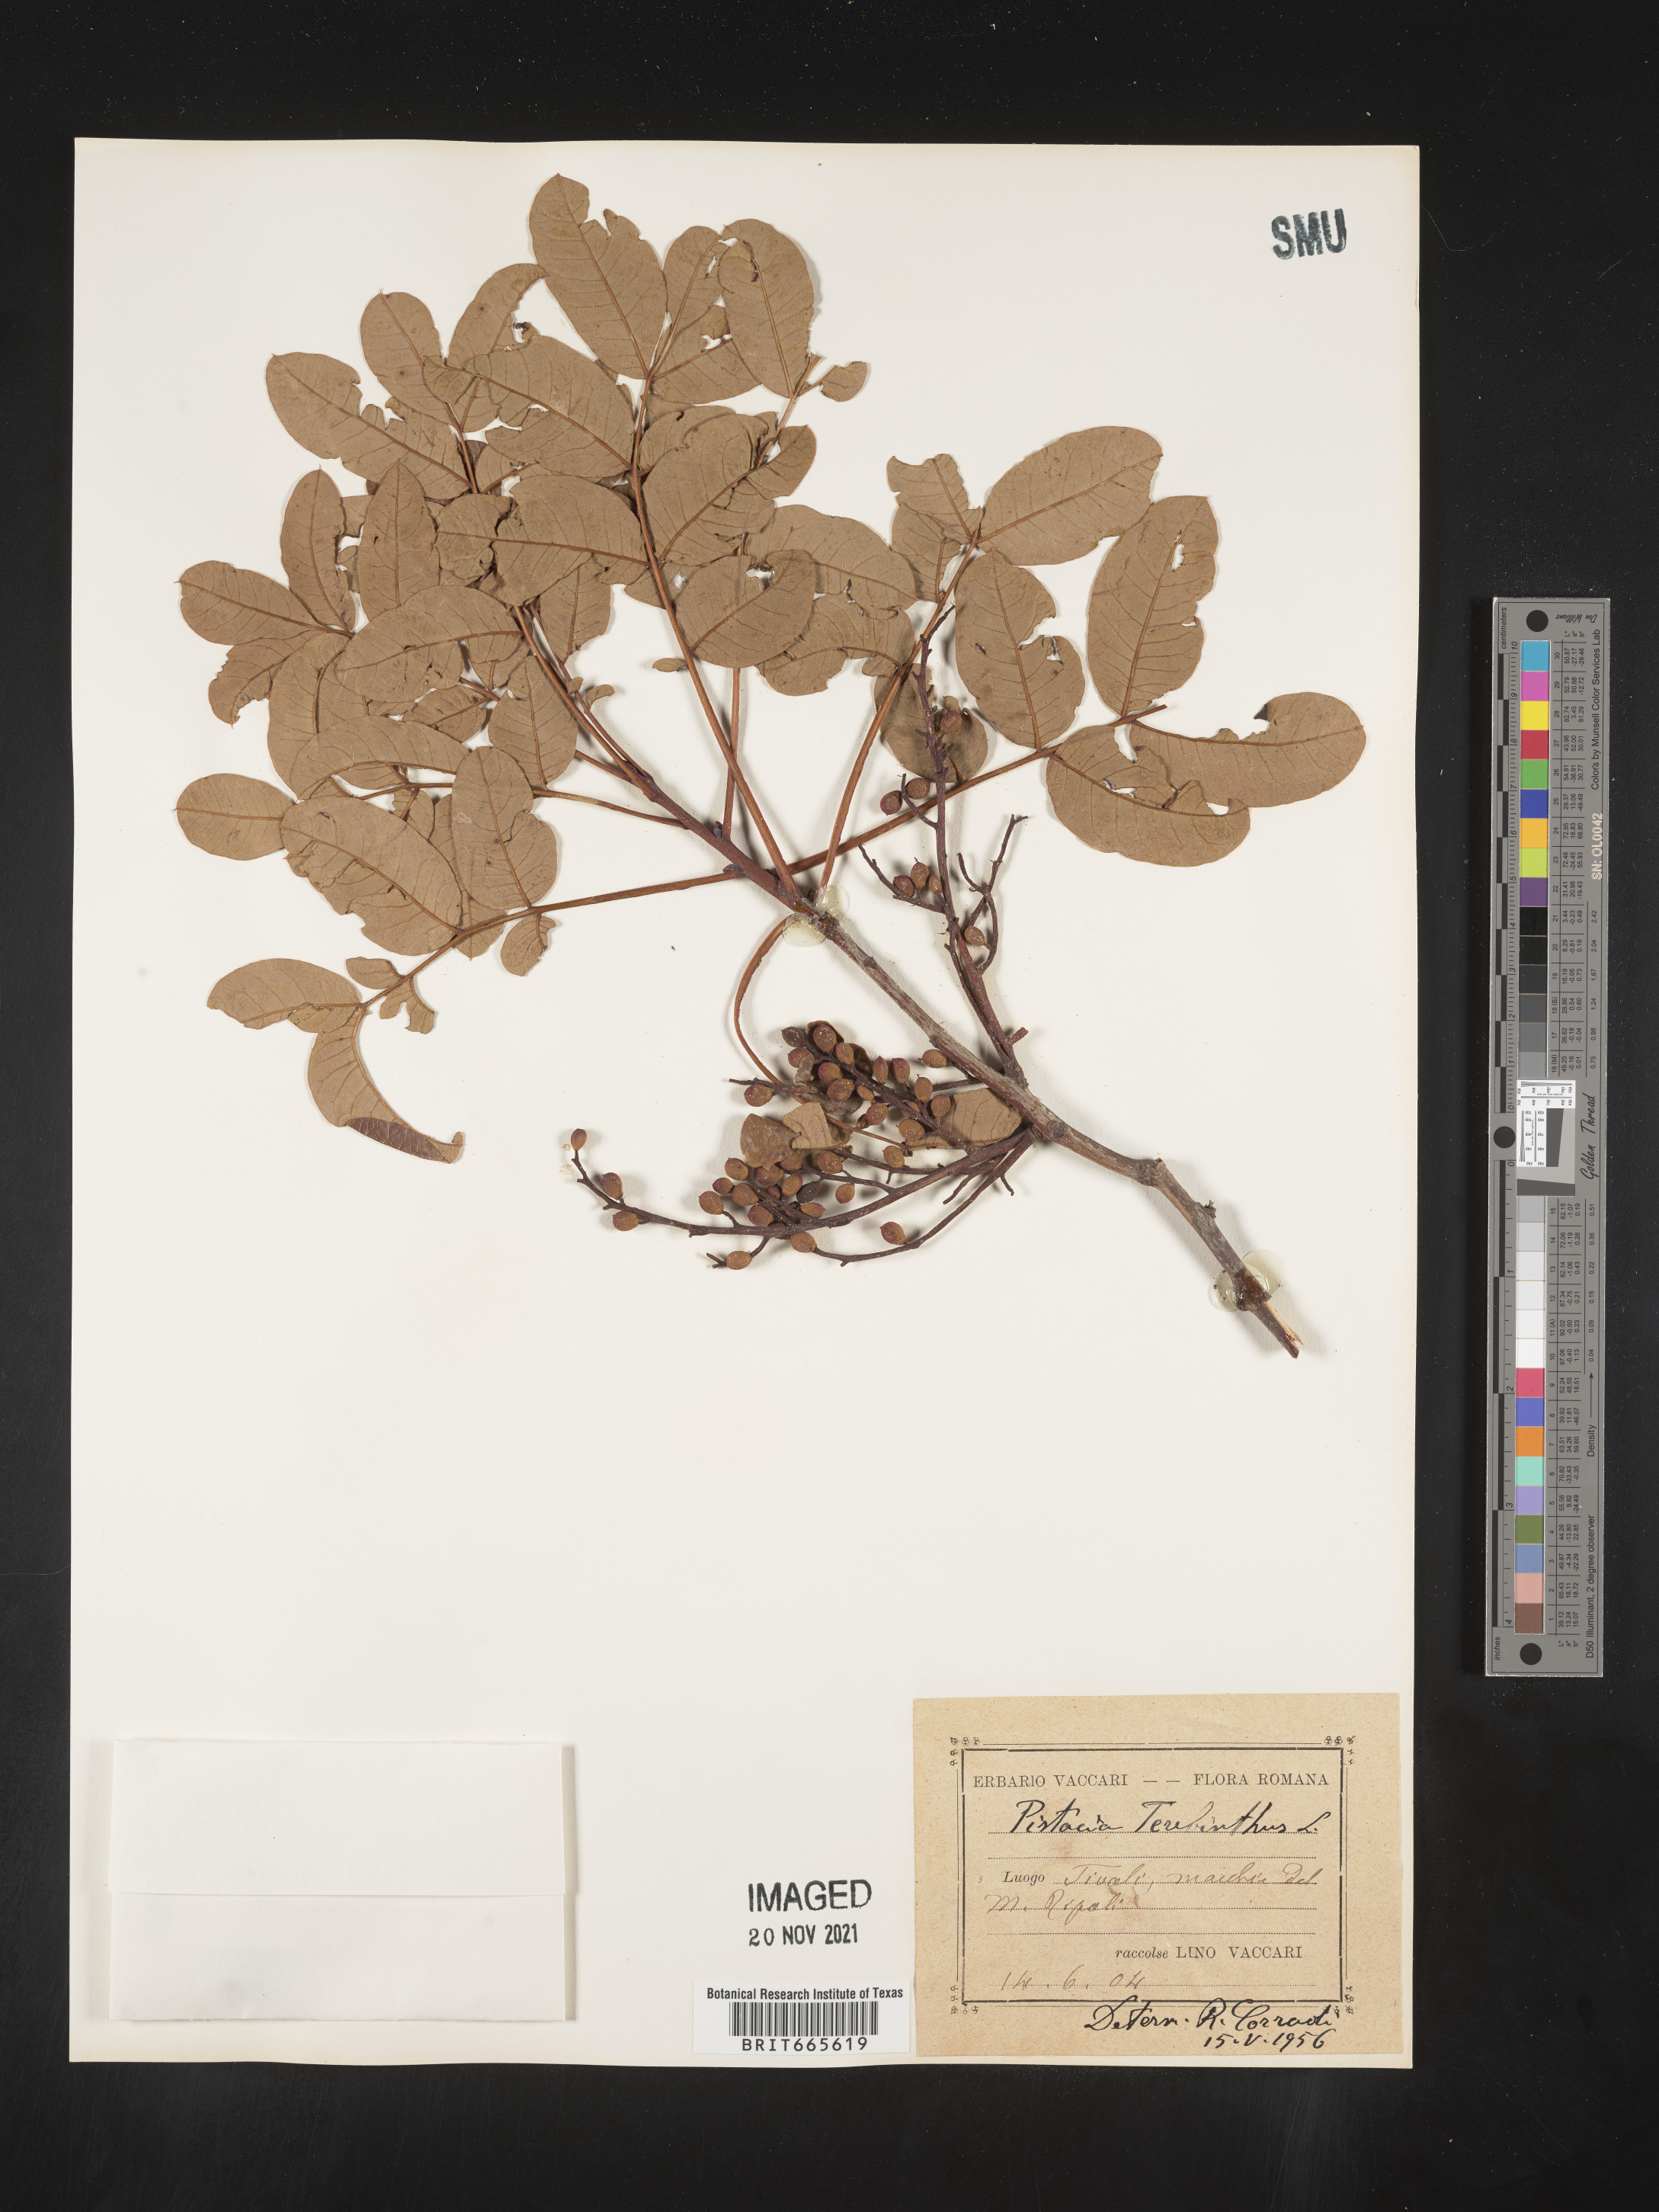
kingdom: Plantae
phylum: Tracheophyta
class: Magnoliopsida
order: Sapindales
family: Anacardiaceae
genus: Pistacia
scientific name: Pistacia
